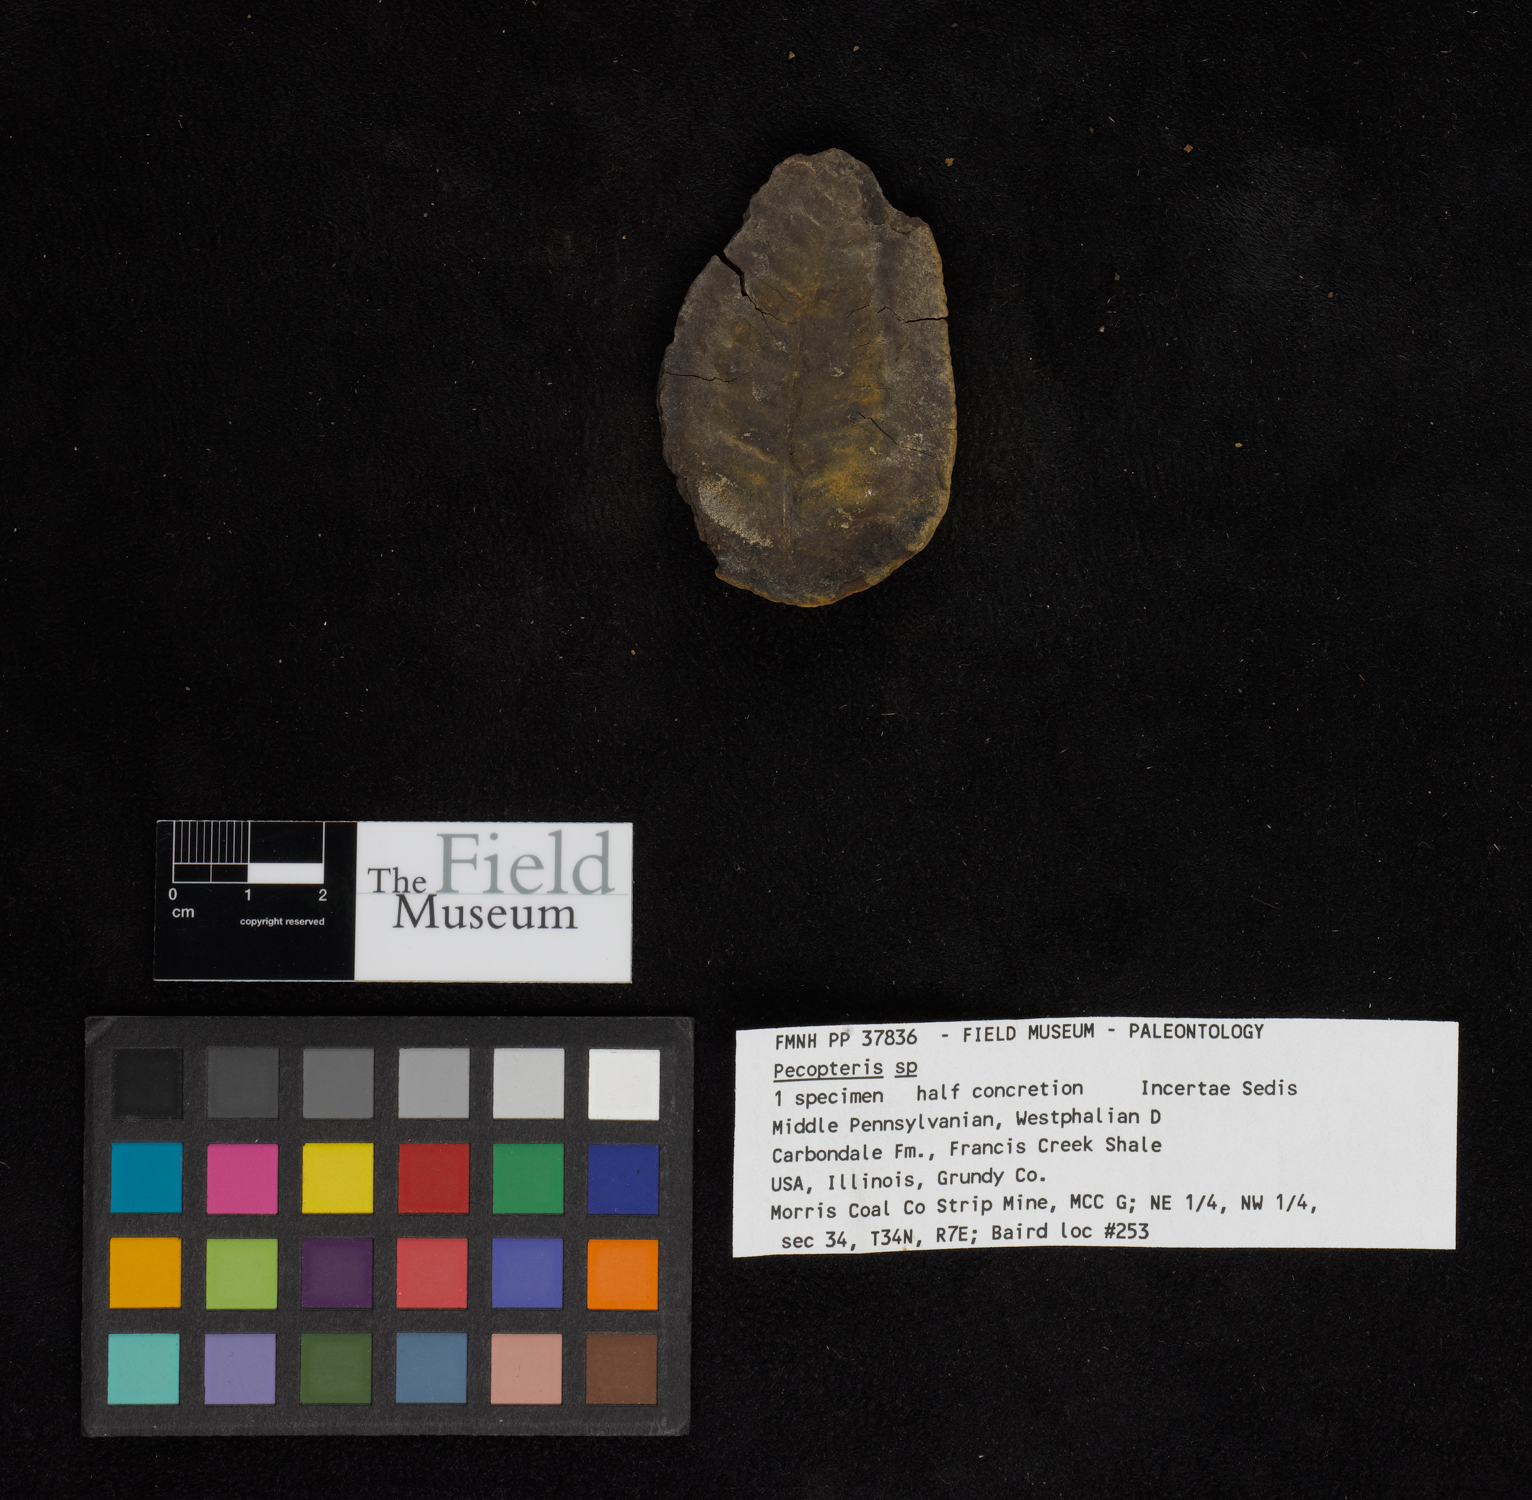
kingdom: Plantae
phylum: Tracheophyta
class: Polypodiopsida
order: Marattiales
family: Asterothecaceae
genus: Pecopteris
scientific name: Pecopteris
